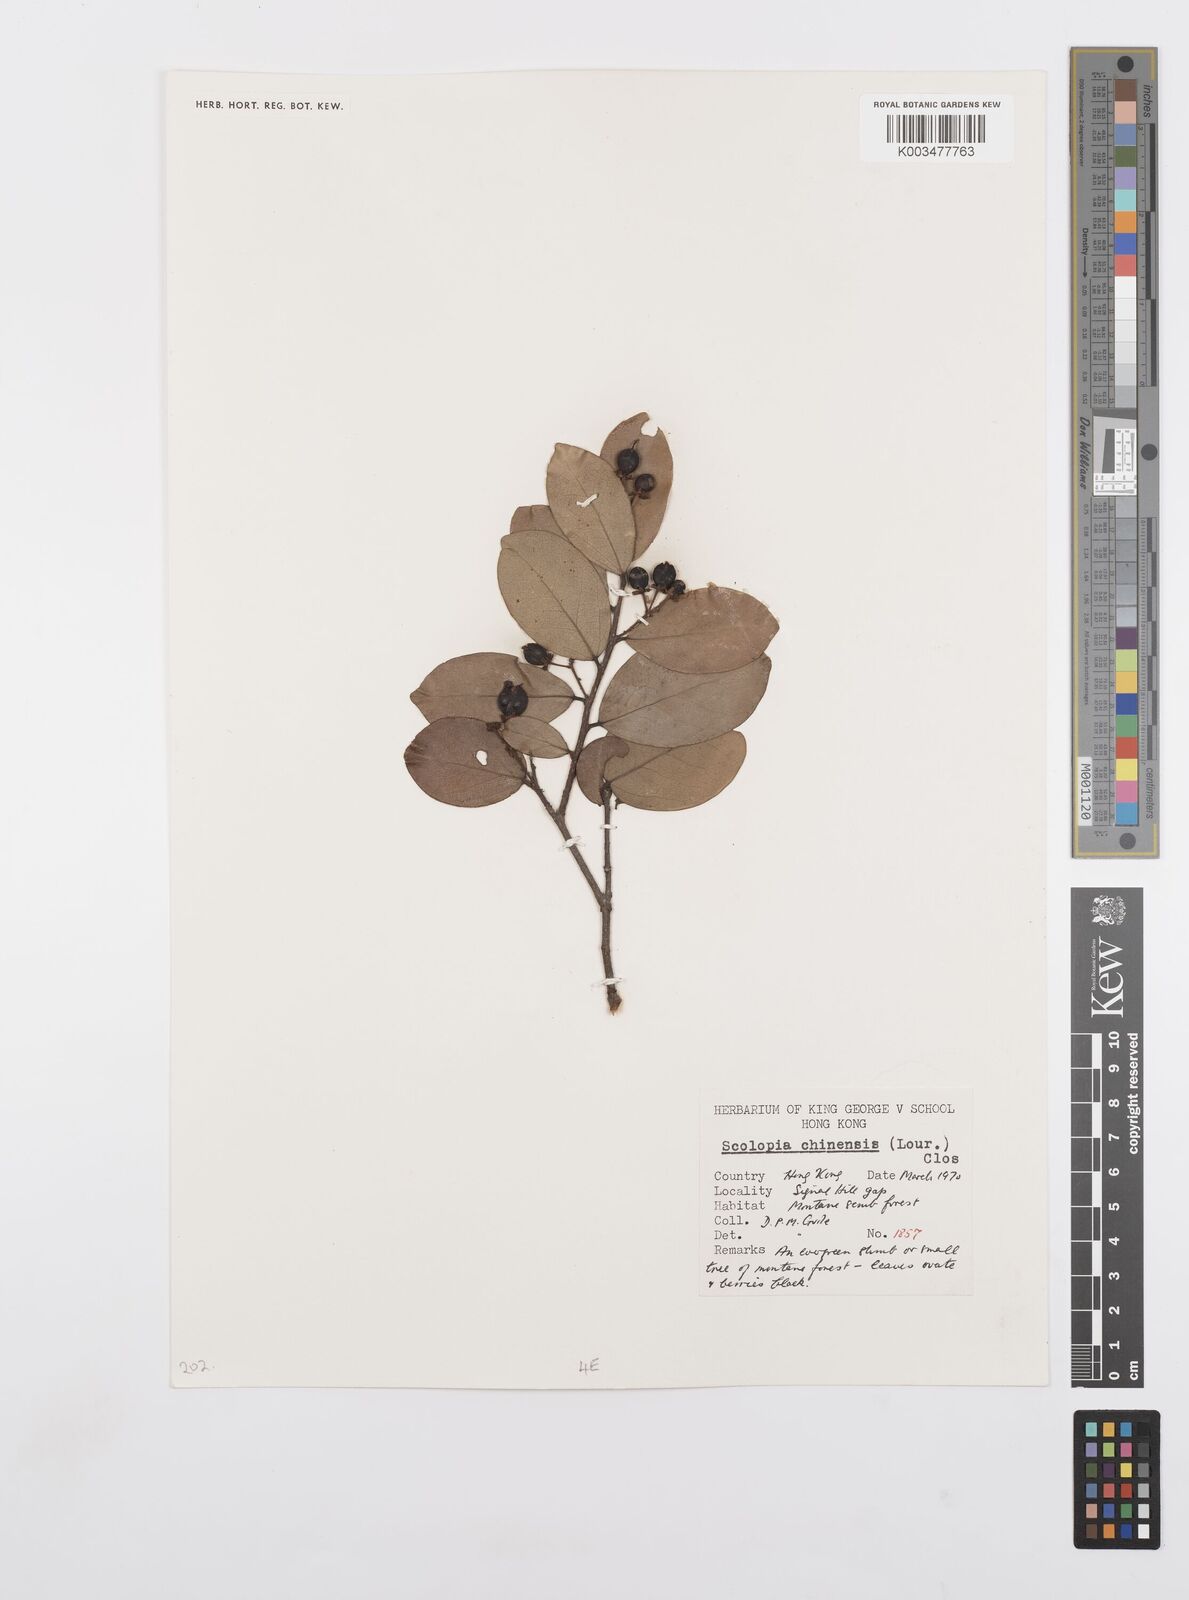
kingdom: Plantae
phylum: Tracheophyta
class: Magnoliopsida
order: Malpighiales
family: Salicaceae
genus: Scolopia
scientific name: Scolopia chinensis
